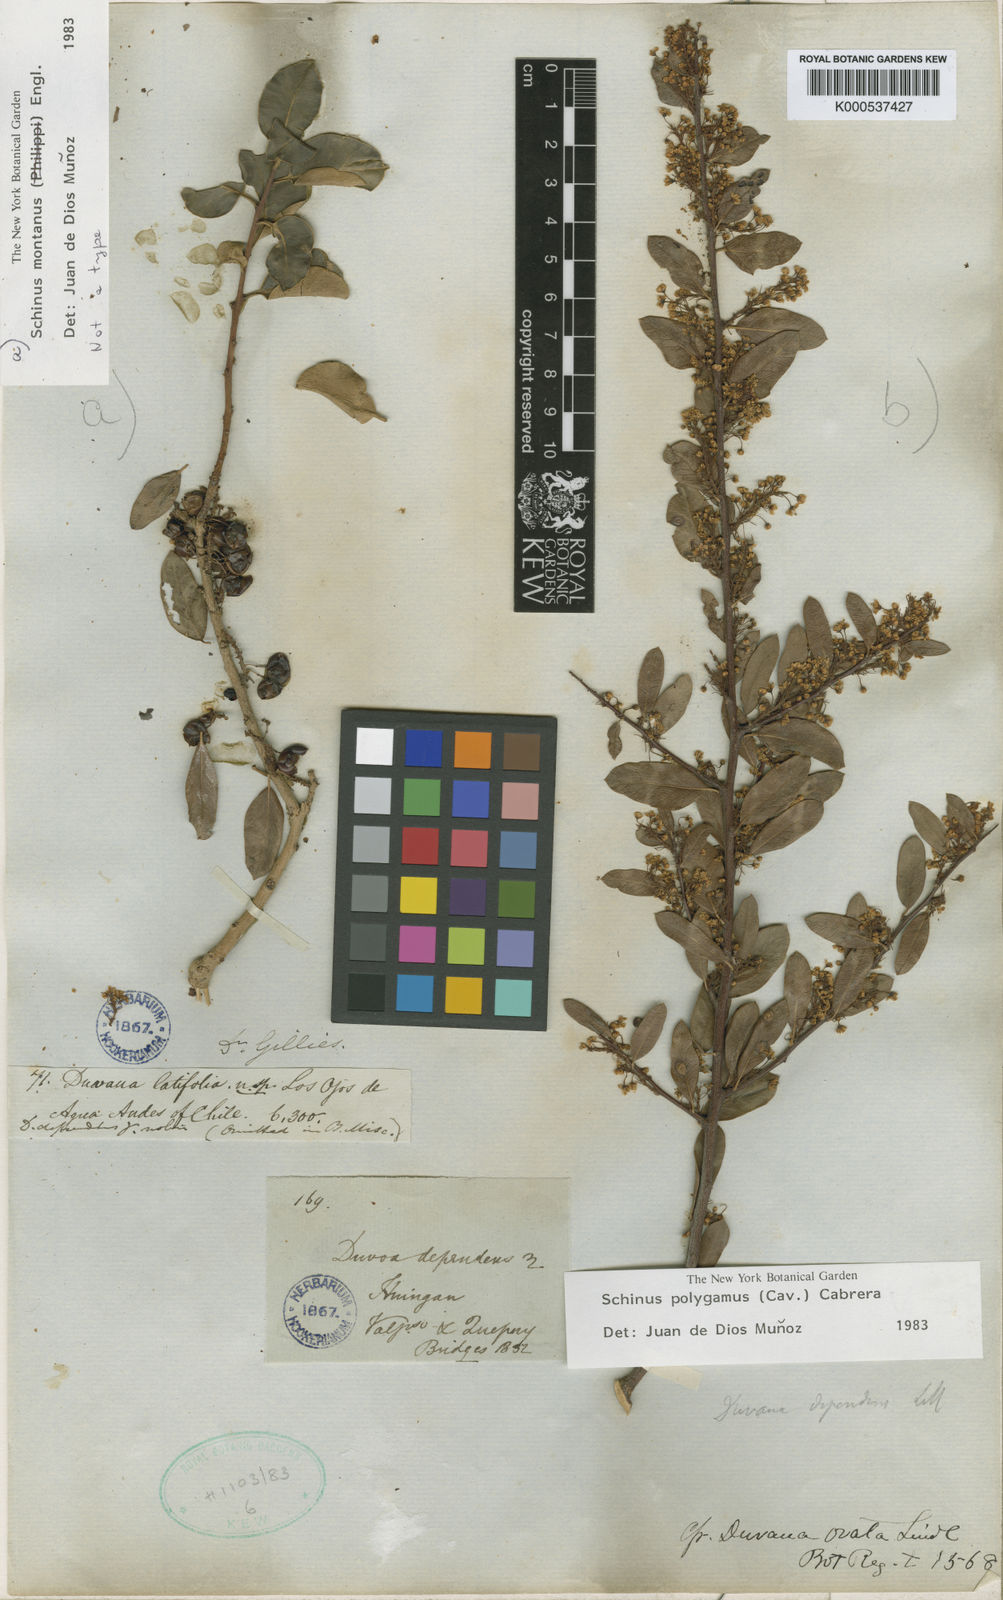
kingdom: Plantae
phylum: Tracheophyta
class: Magnoliopsida
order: Sapindales
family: Anacardiaceae
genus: Schinus
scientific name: Schinus polygama
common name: Hardee peppertree
